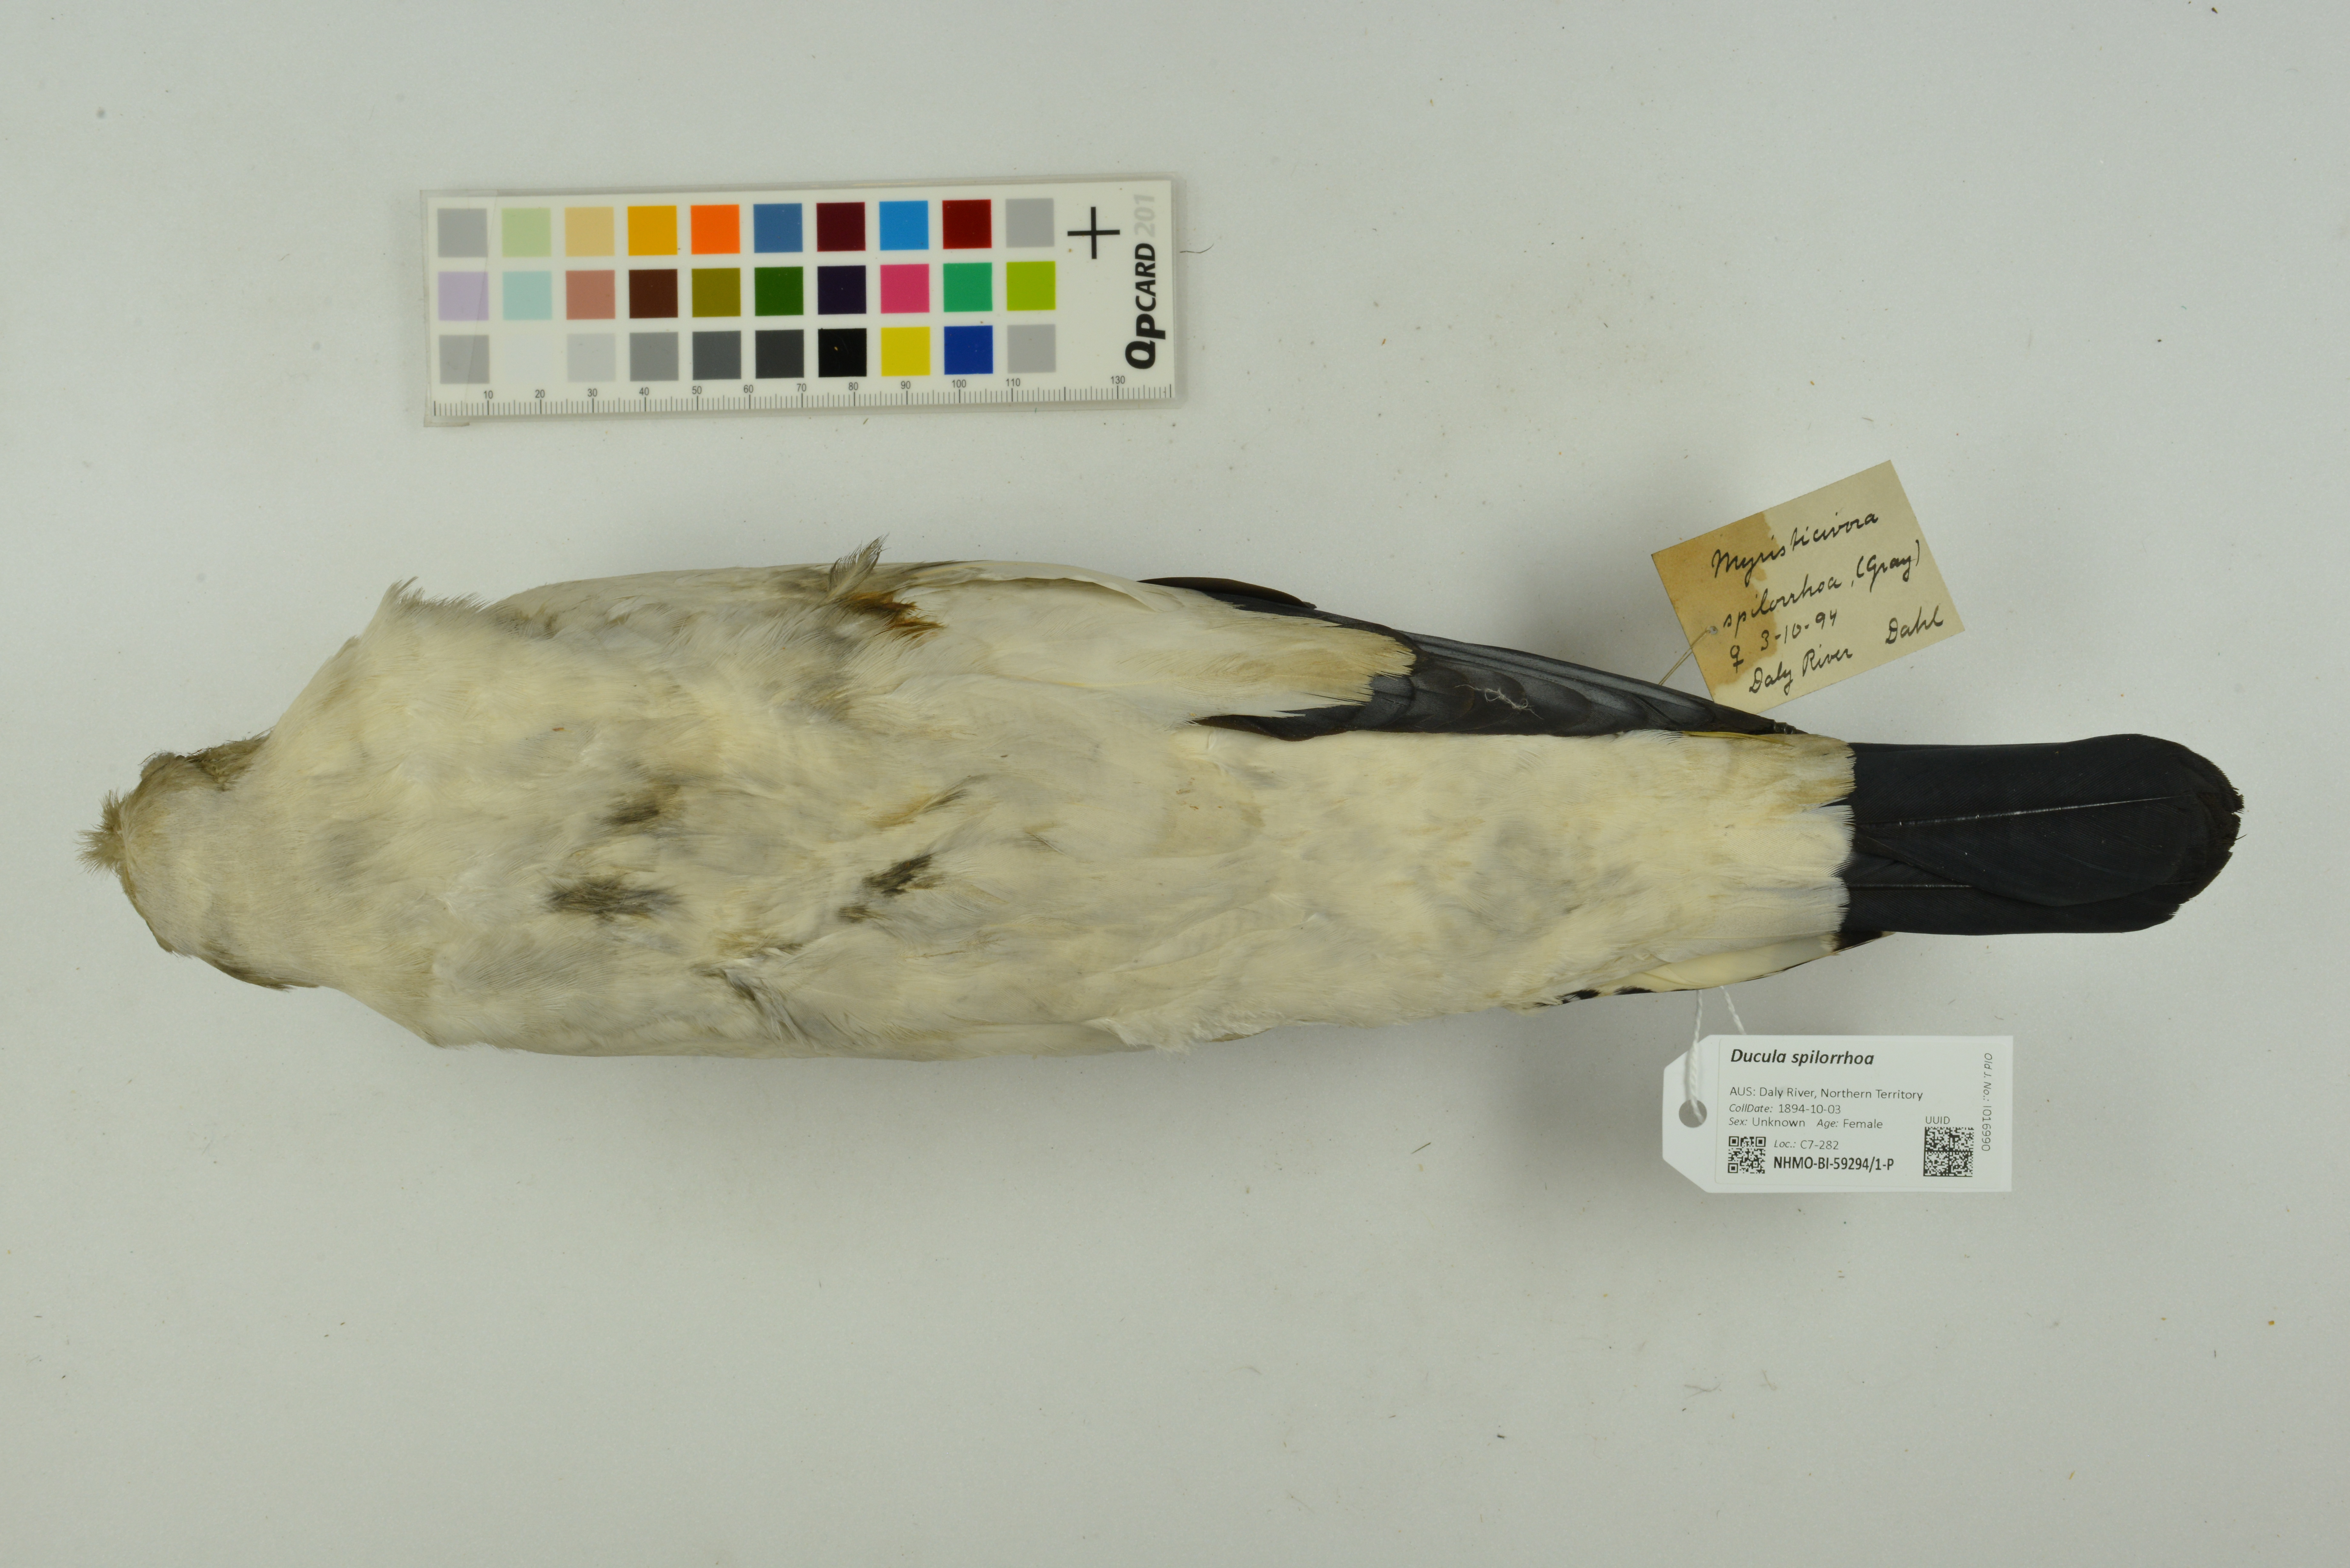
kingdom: Animalia
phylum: Chordata
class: Aves
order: Columbiformes
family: Columbidae
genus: Ducula
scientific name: Ducula spilorrhoa
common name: Torresian imperial pigeon
